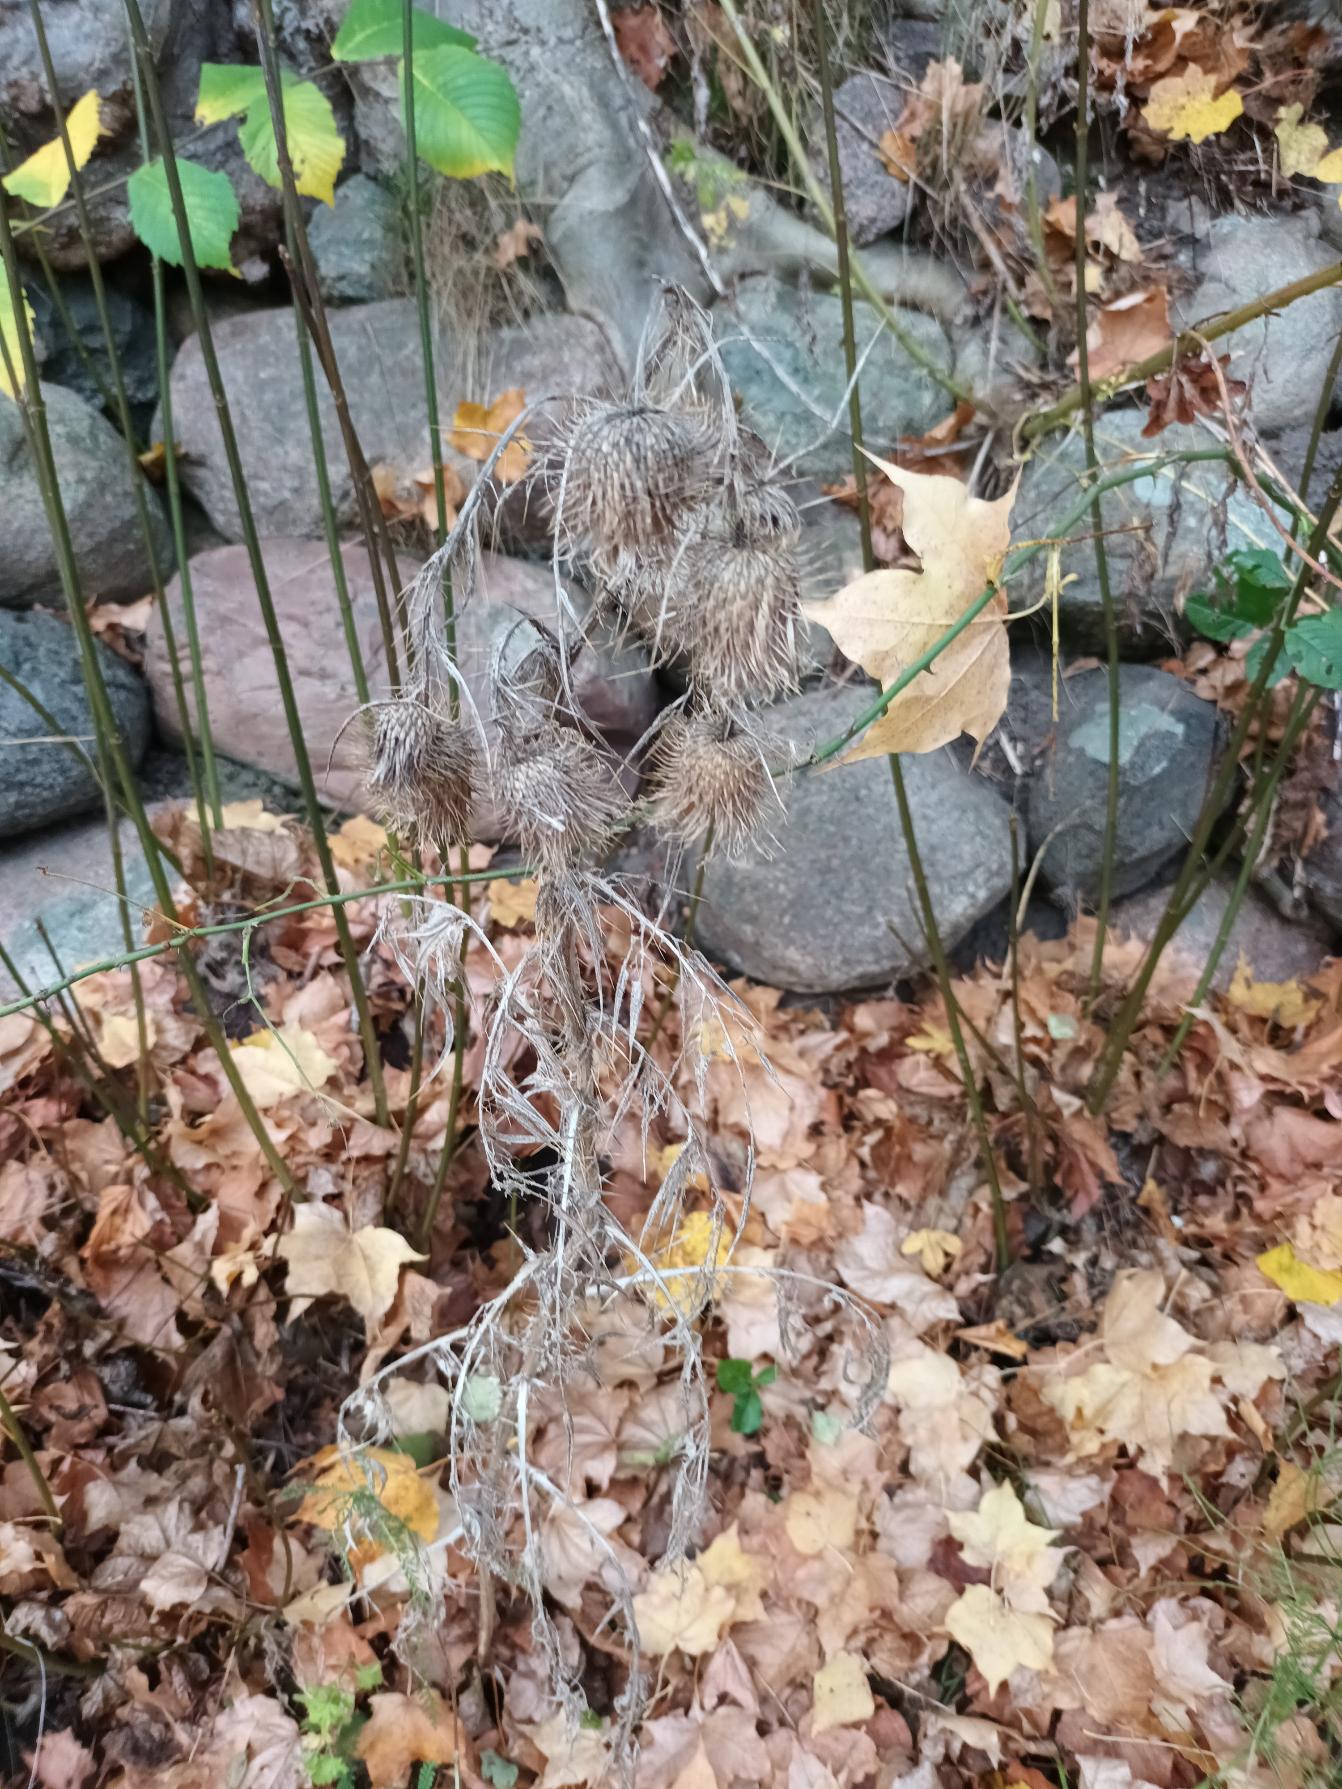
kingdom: Plantae
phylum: Tracheophyta
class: Magnoliopsida
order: Asterales
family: Asteraceae
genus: Cirsium
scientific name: Cirsium vulgare
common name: Horse-tidsel
